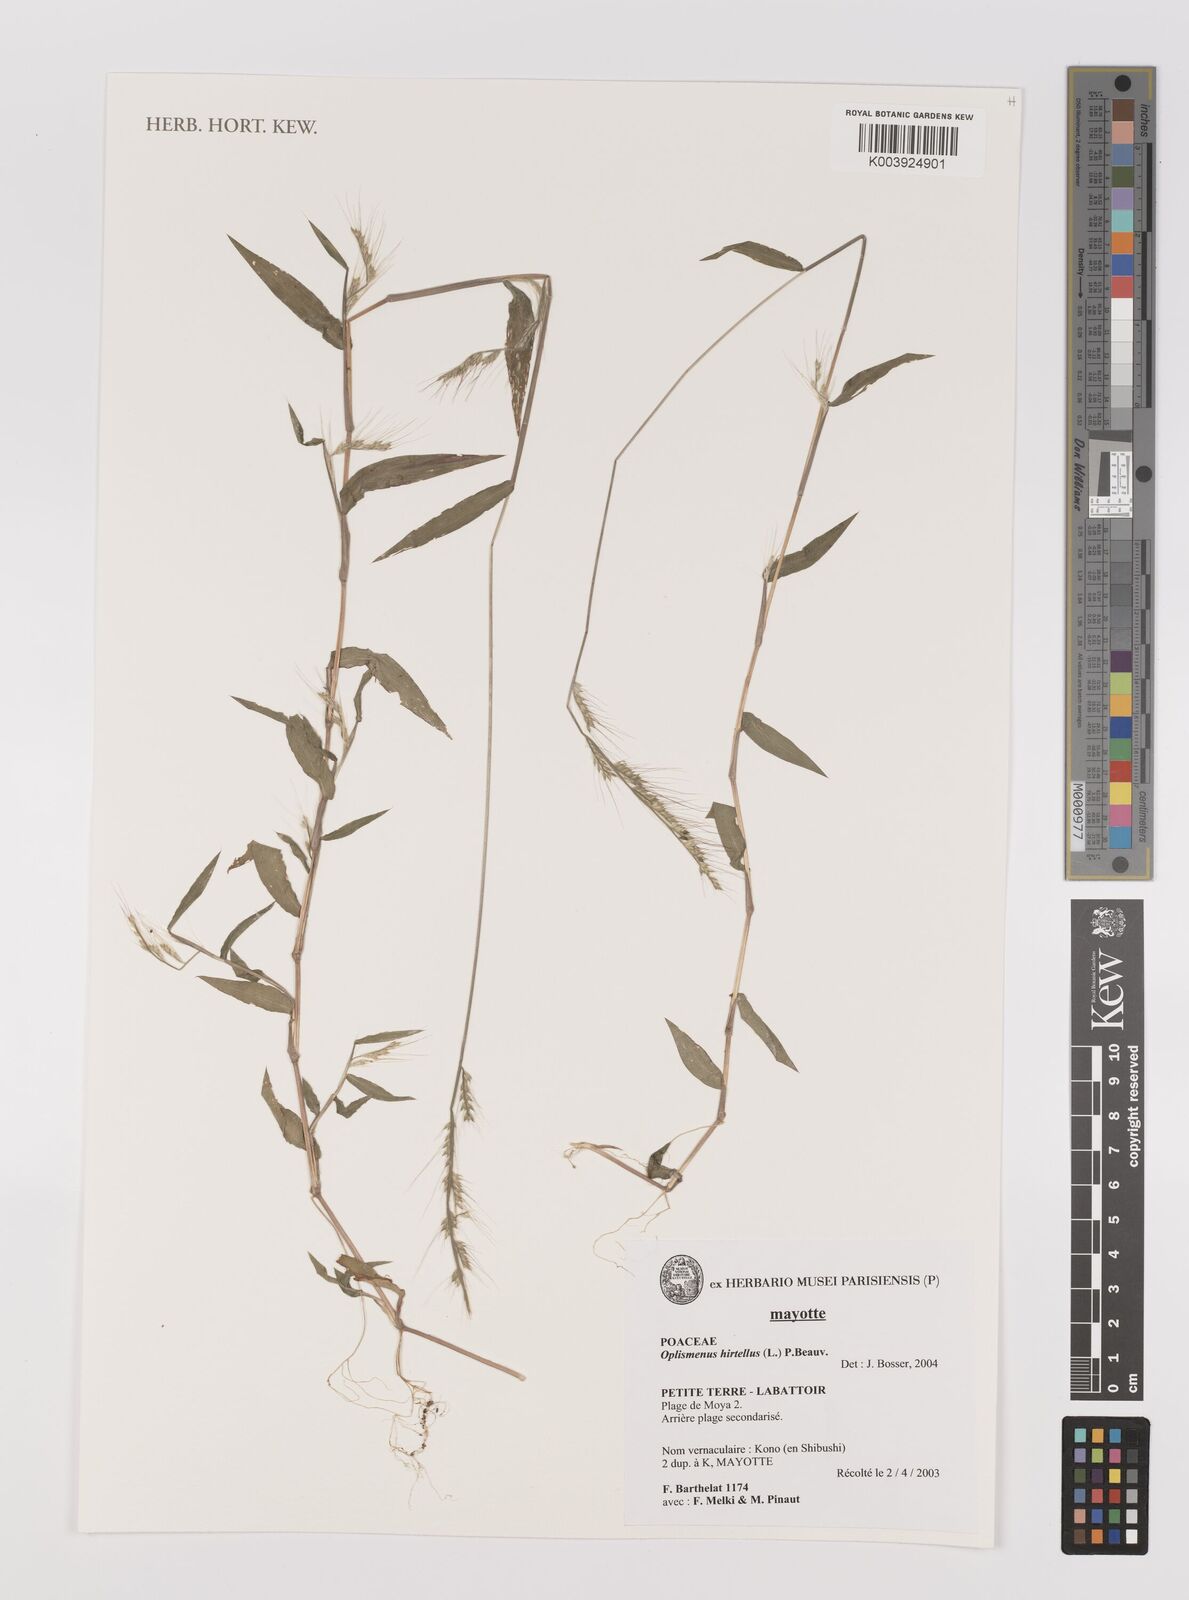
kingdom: Plantae
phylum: Tracheophyta
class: Liliopsida
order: Poales
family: Poaceae
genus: Oplismenus
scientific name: Oplismenus hirtellus
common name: Basketgrass
